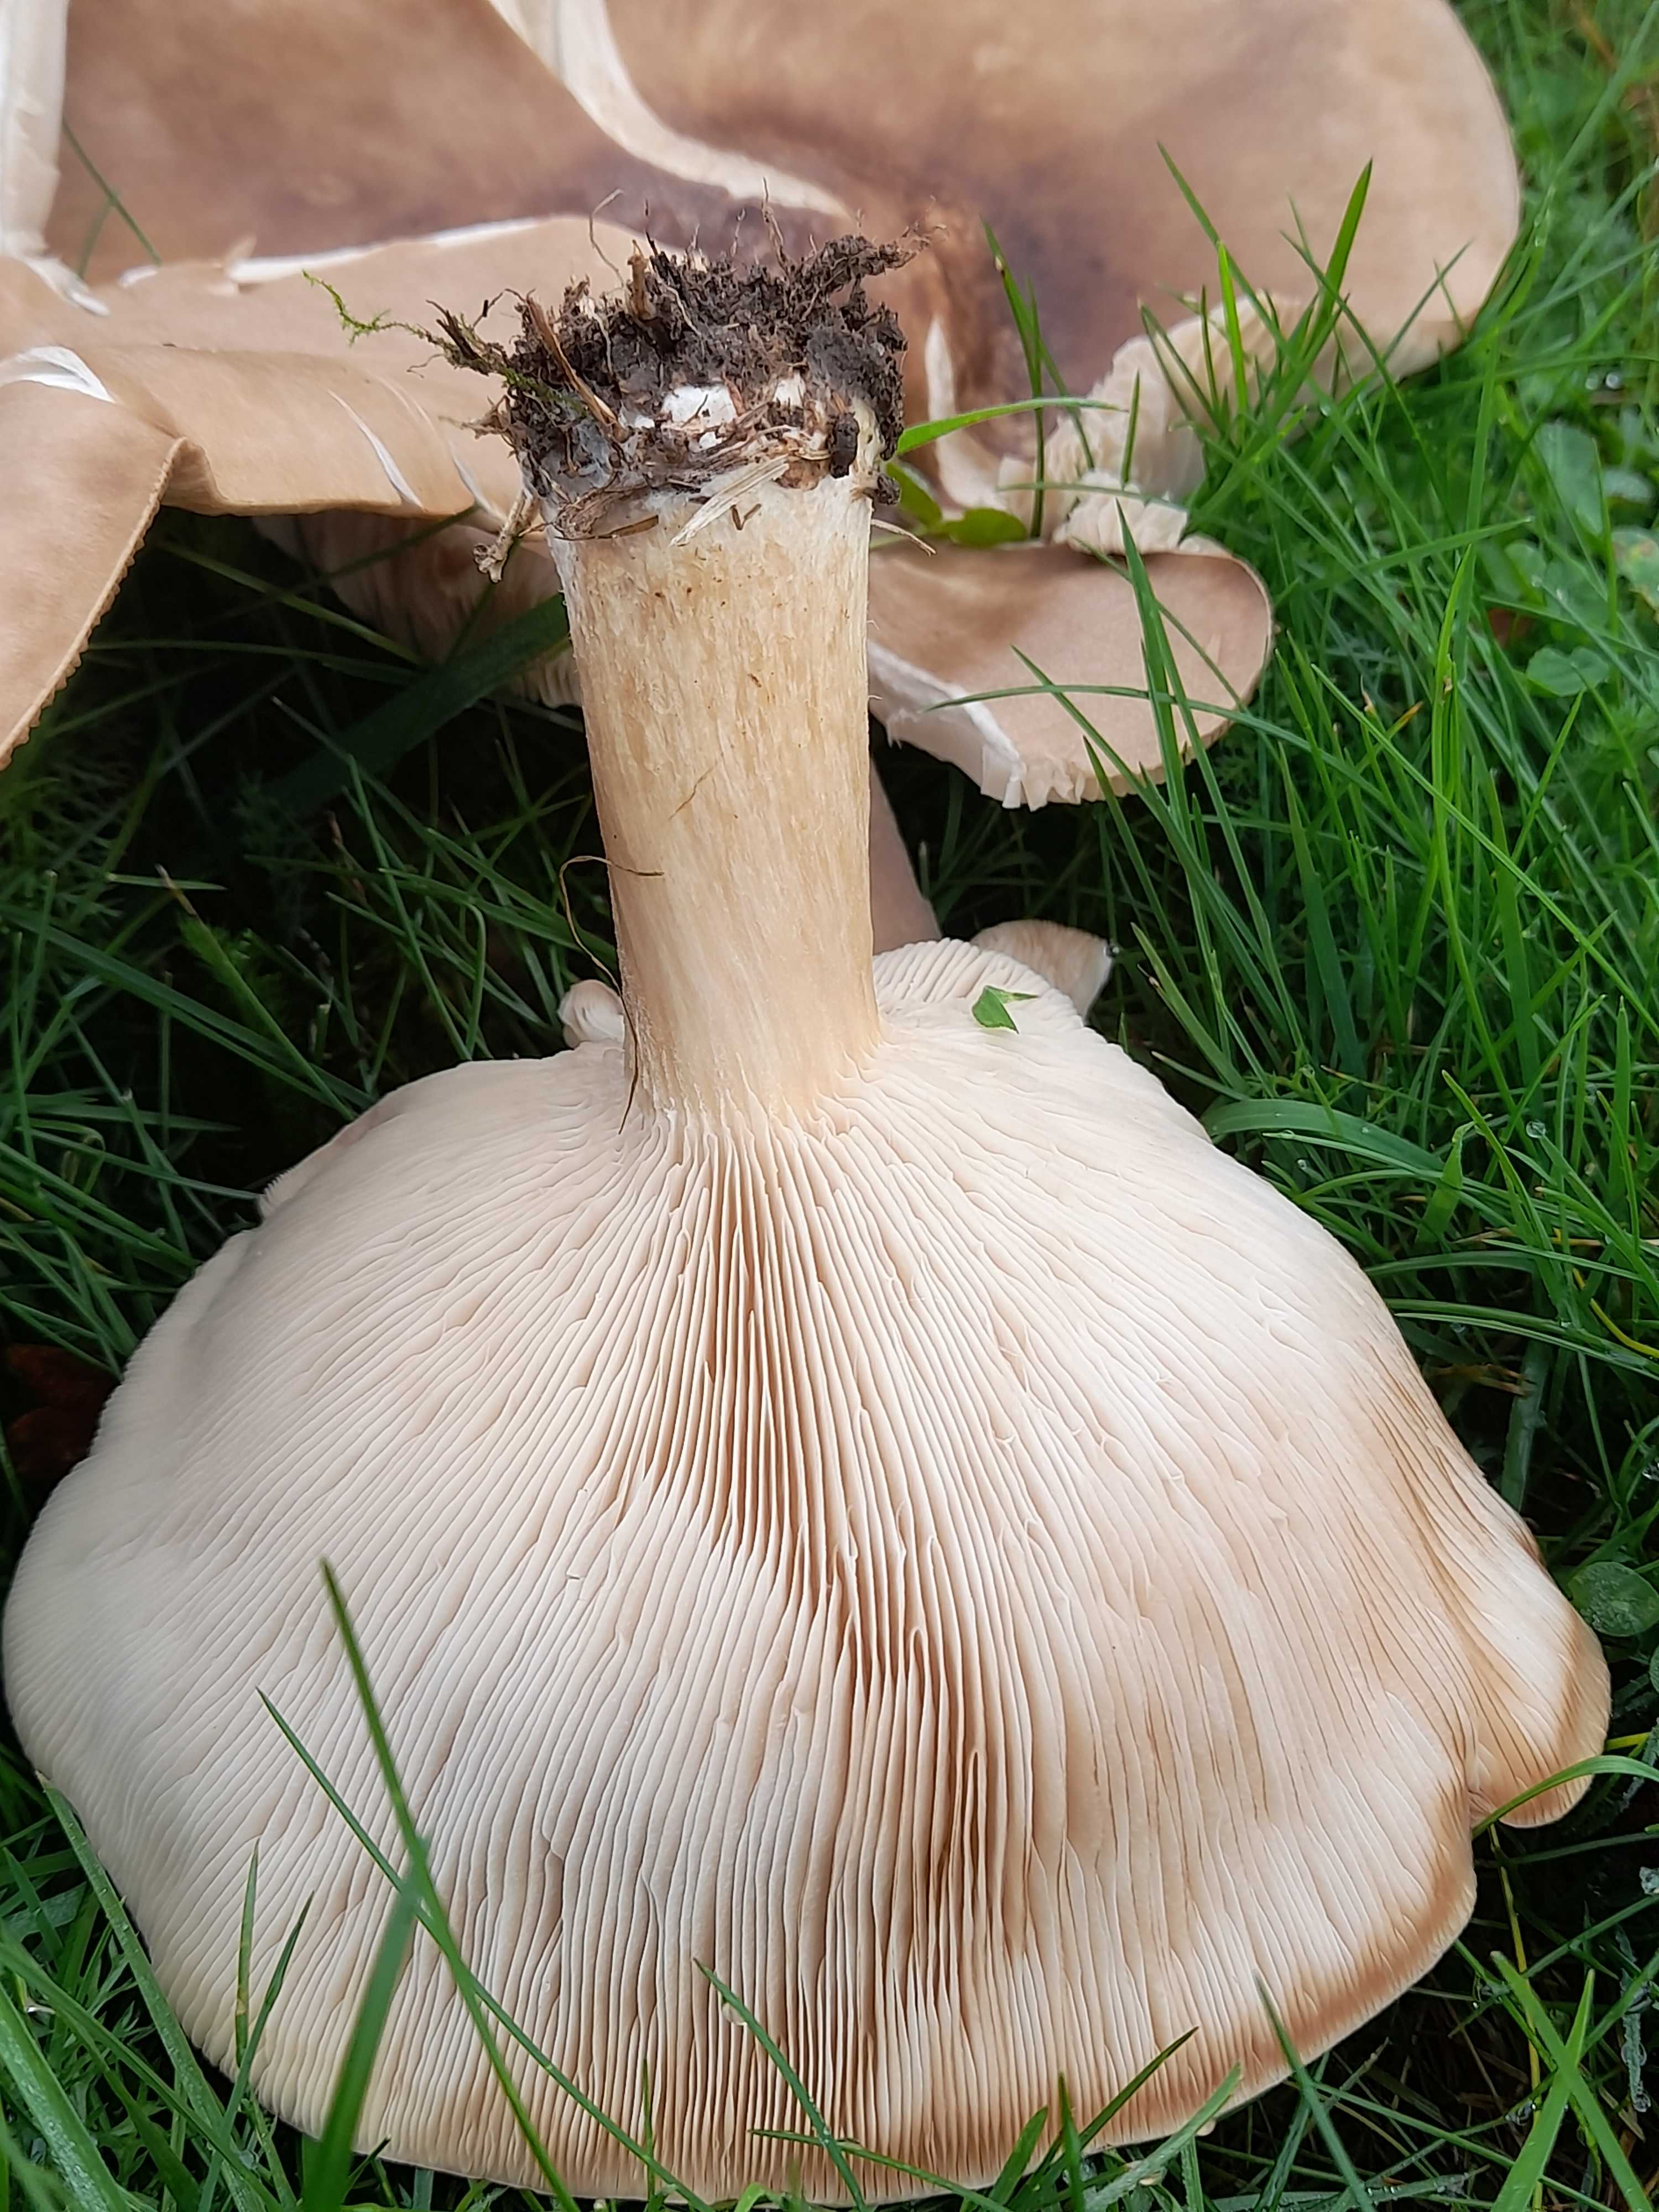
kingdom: Fungi
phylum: Basidiomycota
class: Agaricomycetes
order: Agaricales
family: Tricholomataceae
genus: Melanoleuca
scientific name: Melanoleuca
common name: munkehat
